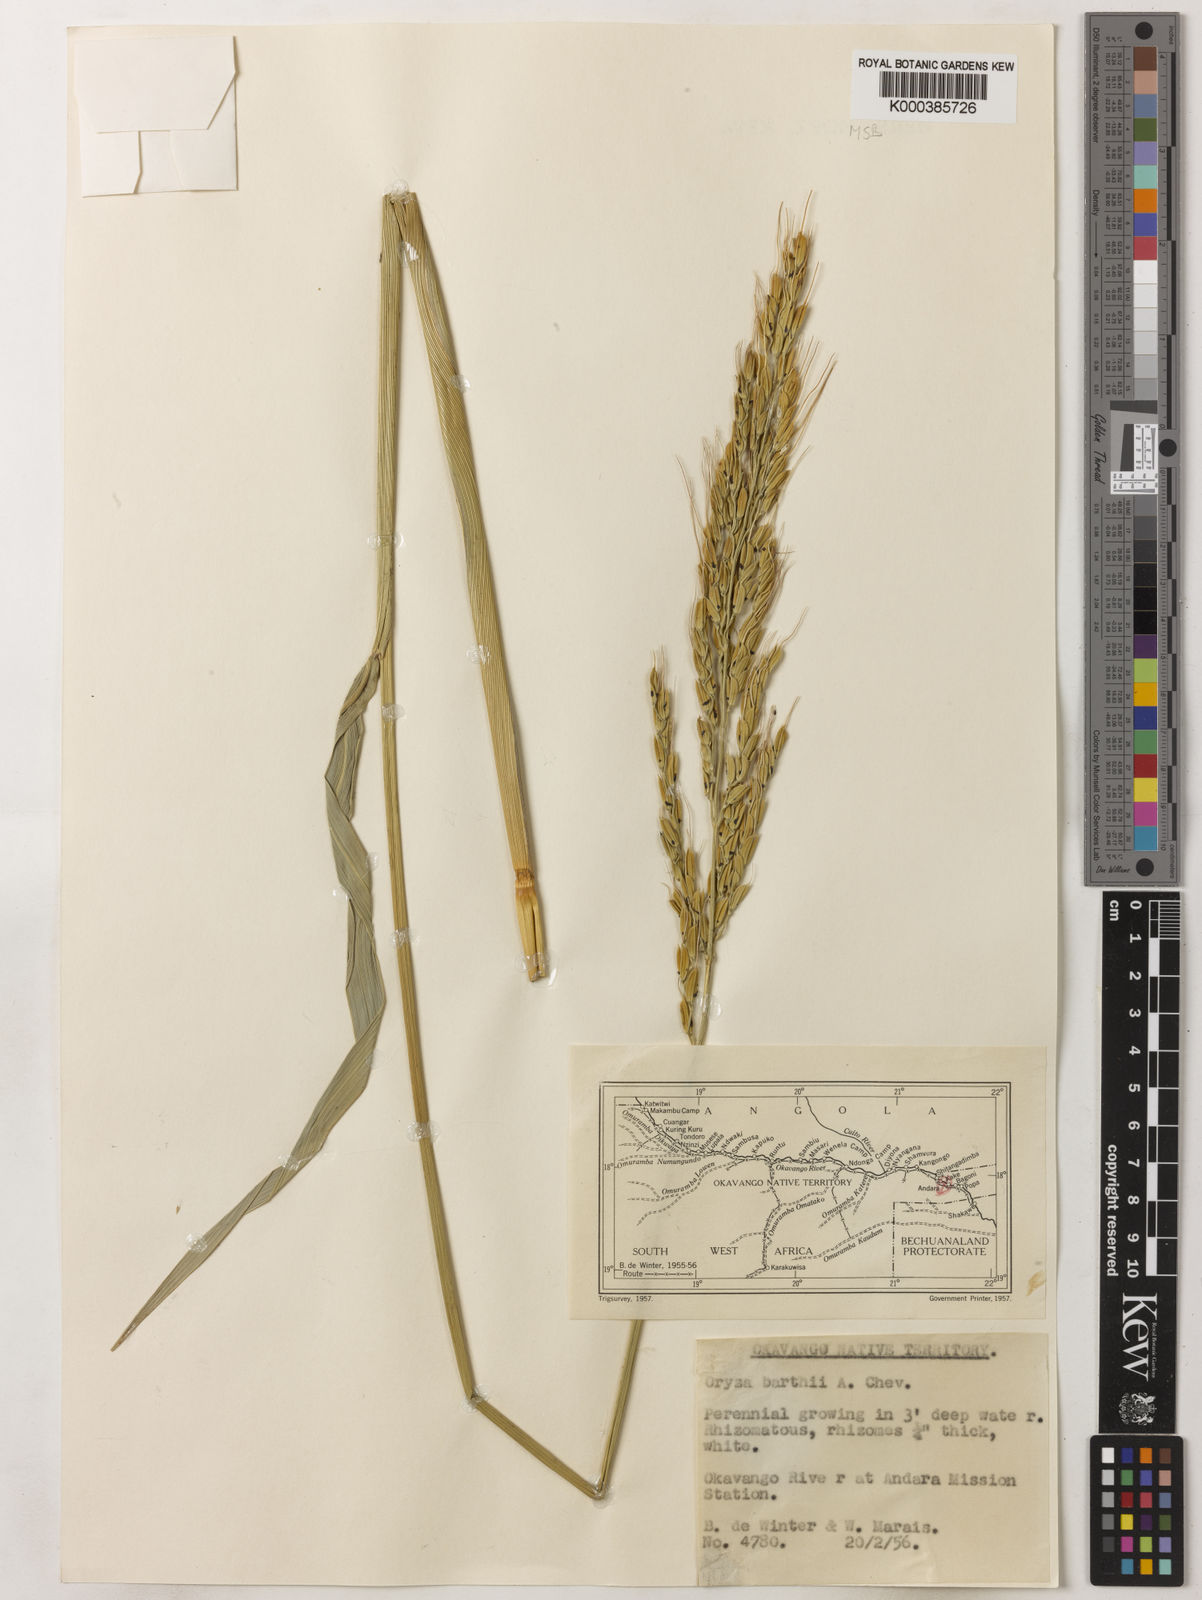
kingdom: Plantae
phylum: Tracheophyta
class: Liliopsida
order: Poales
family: Poaceae
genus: Oryza
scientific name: Oryza longistaminata
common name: Red rice
